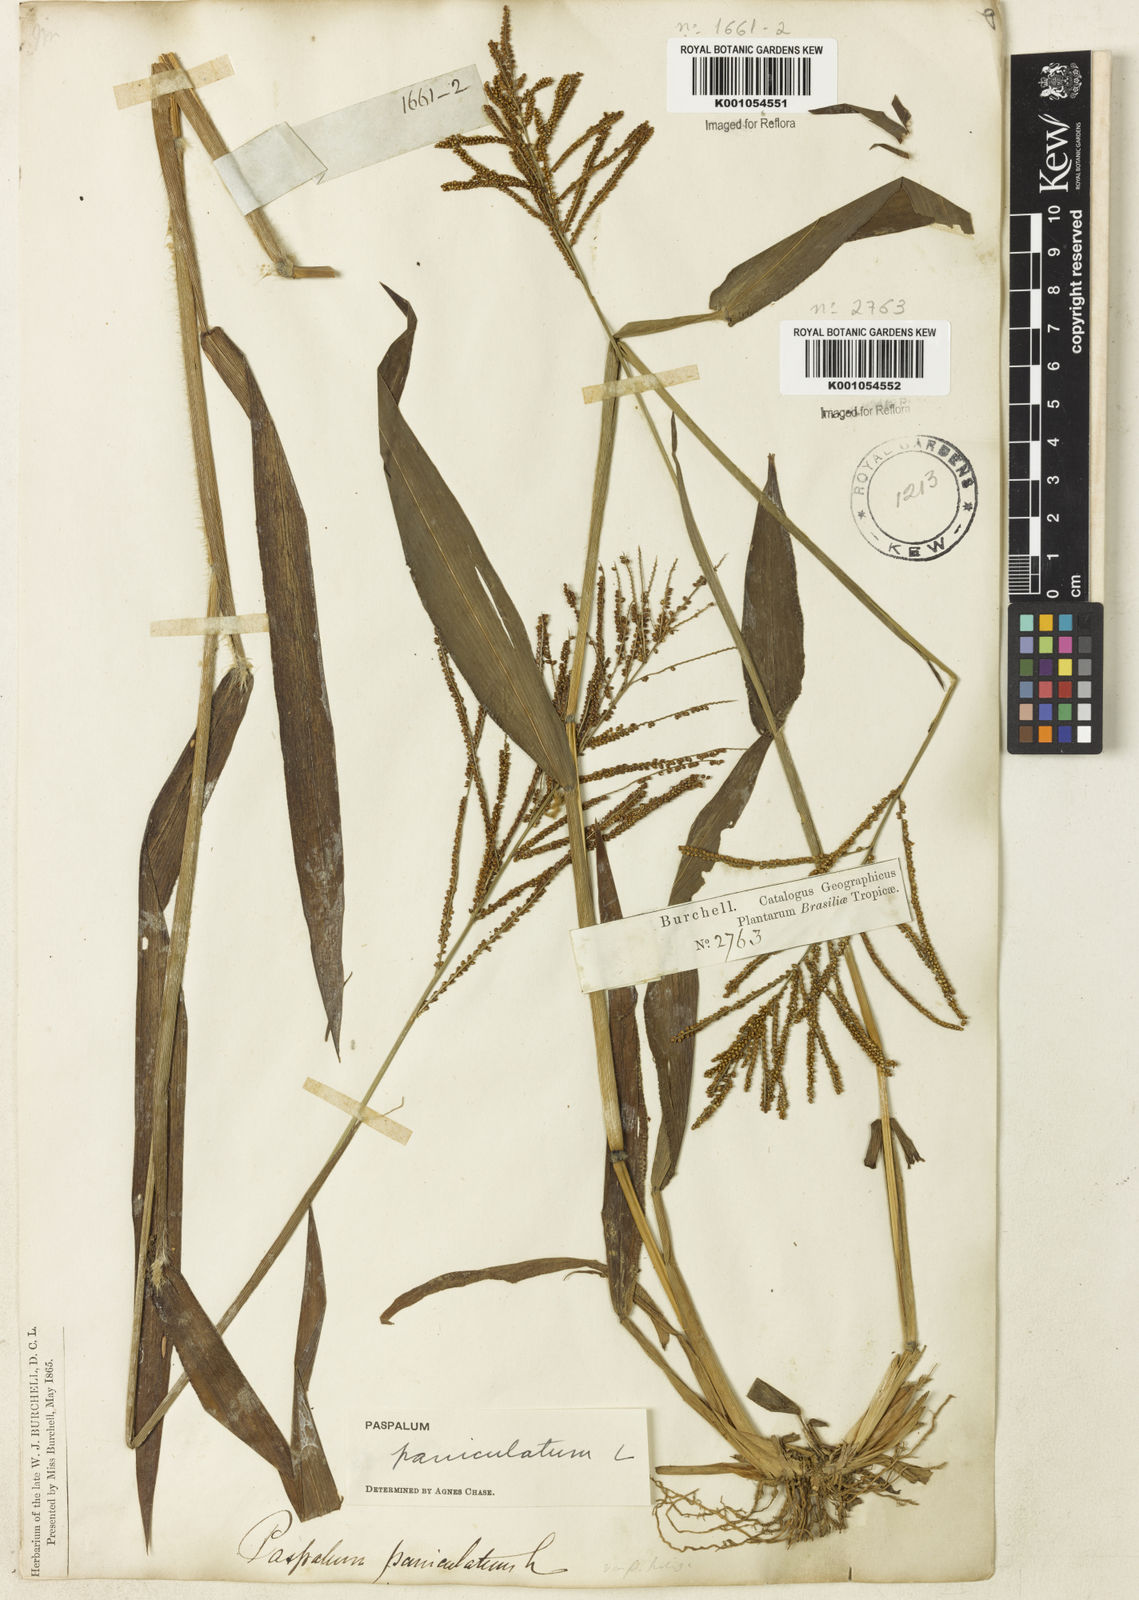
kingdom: Plantae
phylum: Tracheophyta
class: Liliopsida
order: Poales
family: Poaceae
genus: Paspalum
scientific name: Paspalum paniculatum
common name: Arrocillo
